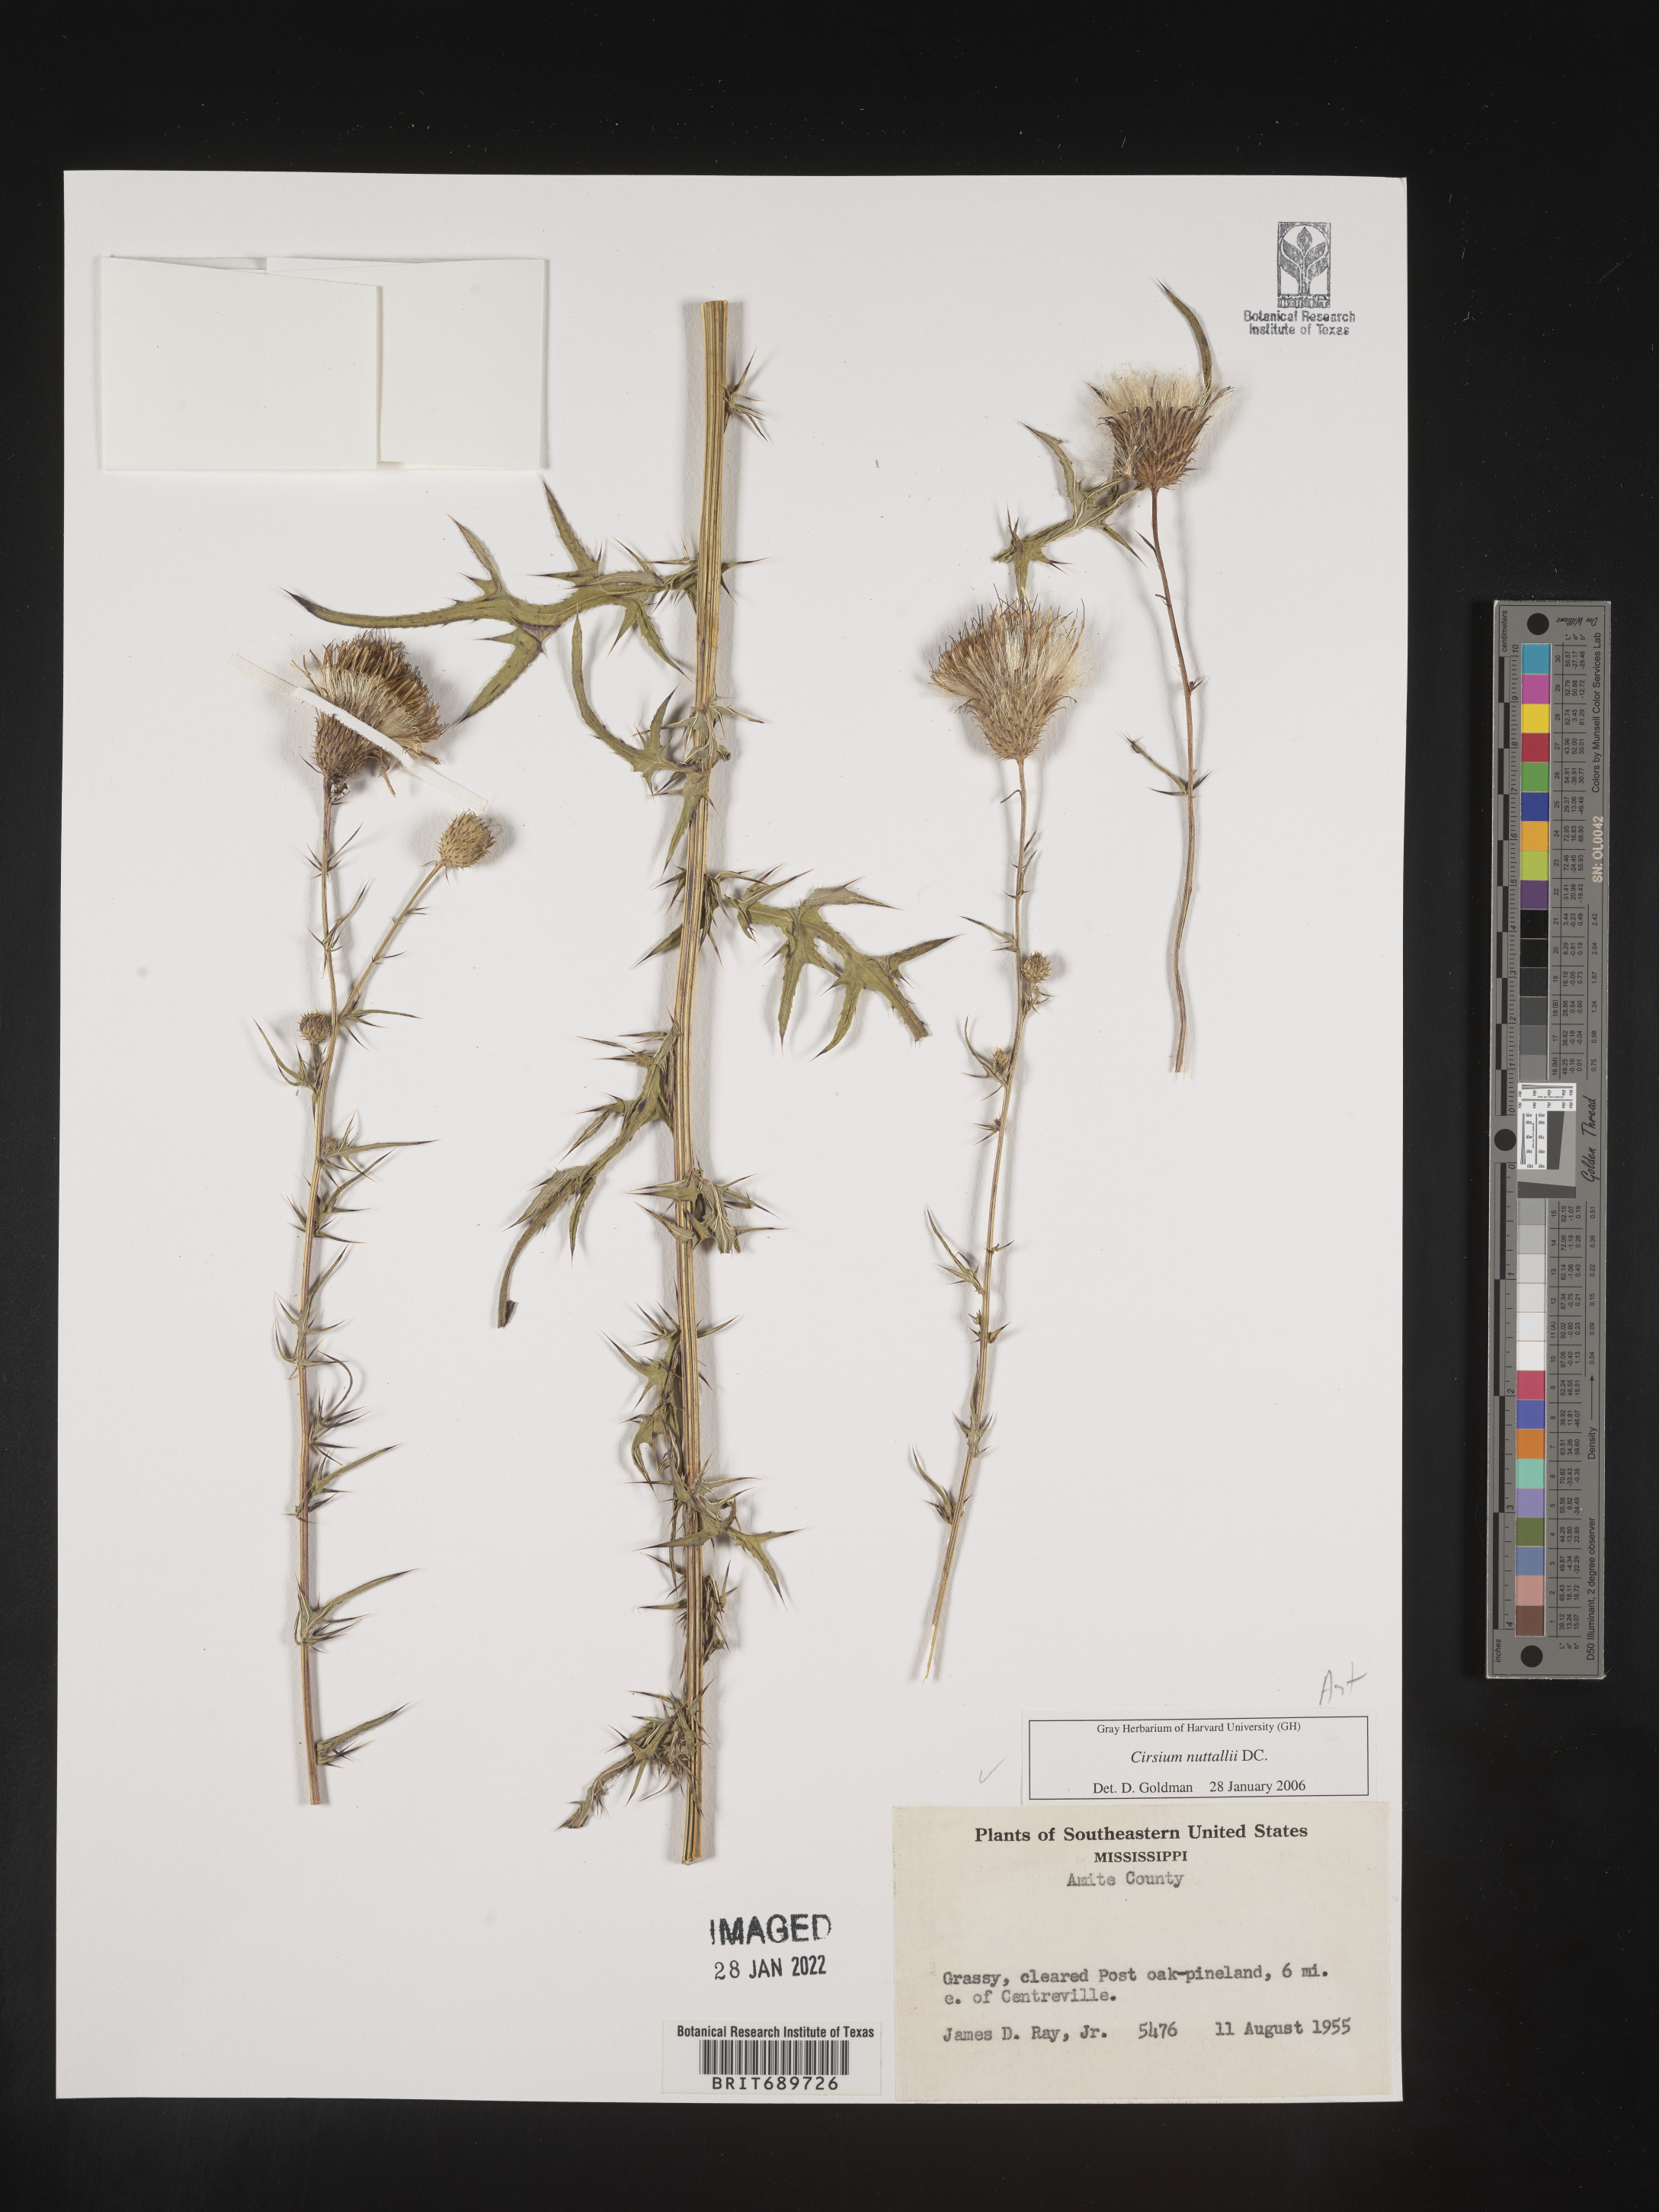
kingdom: Plantae
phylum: Tracheophyta
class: Magnoliopsida
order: Asterales
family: Asteraceae
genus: Cirsium
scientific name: Cirsium
